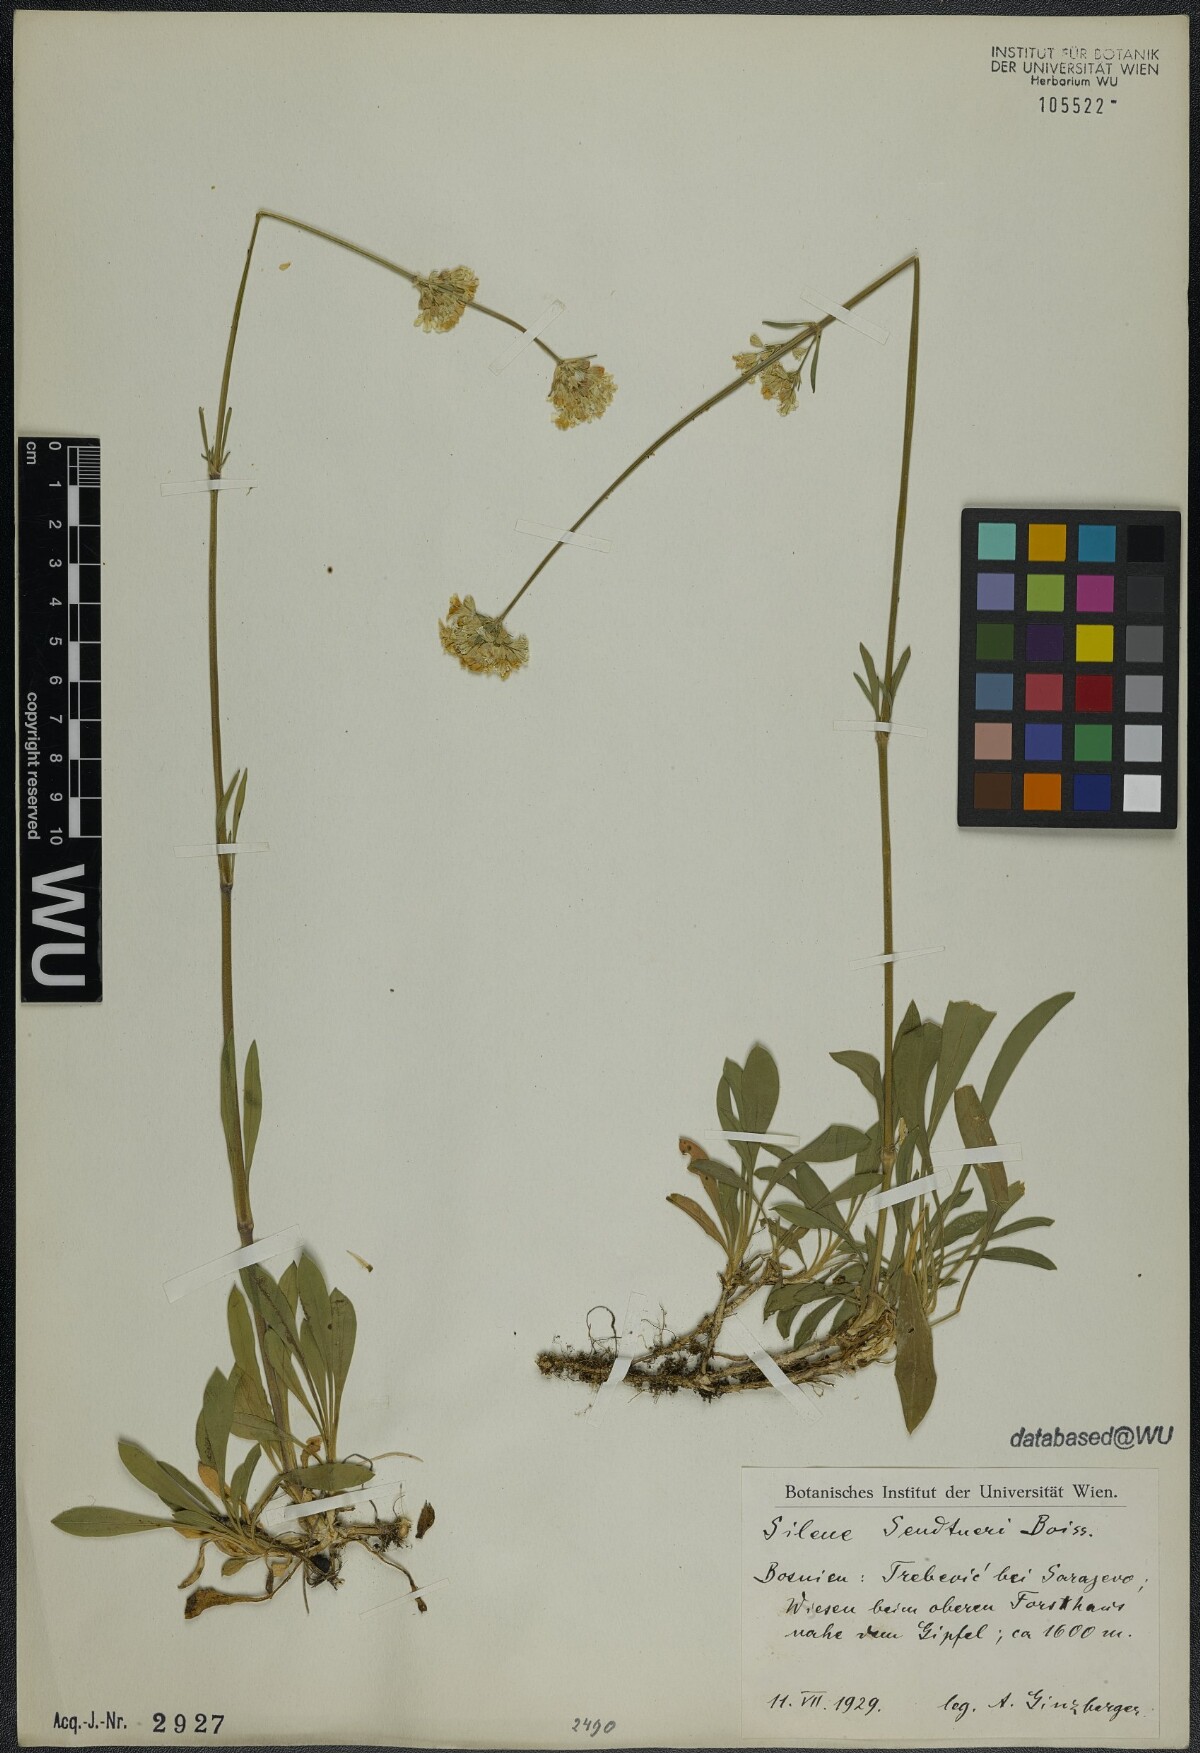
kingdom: Plantae
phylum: Tracheophyta
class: Magnoliopsida
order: Caryophyllales
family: Caryophyllaceae
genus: Silene
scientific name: Silene sendtneri
